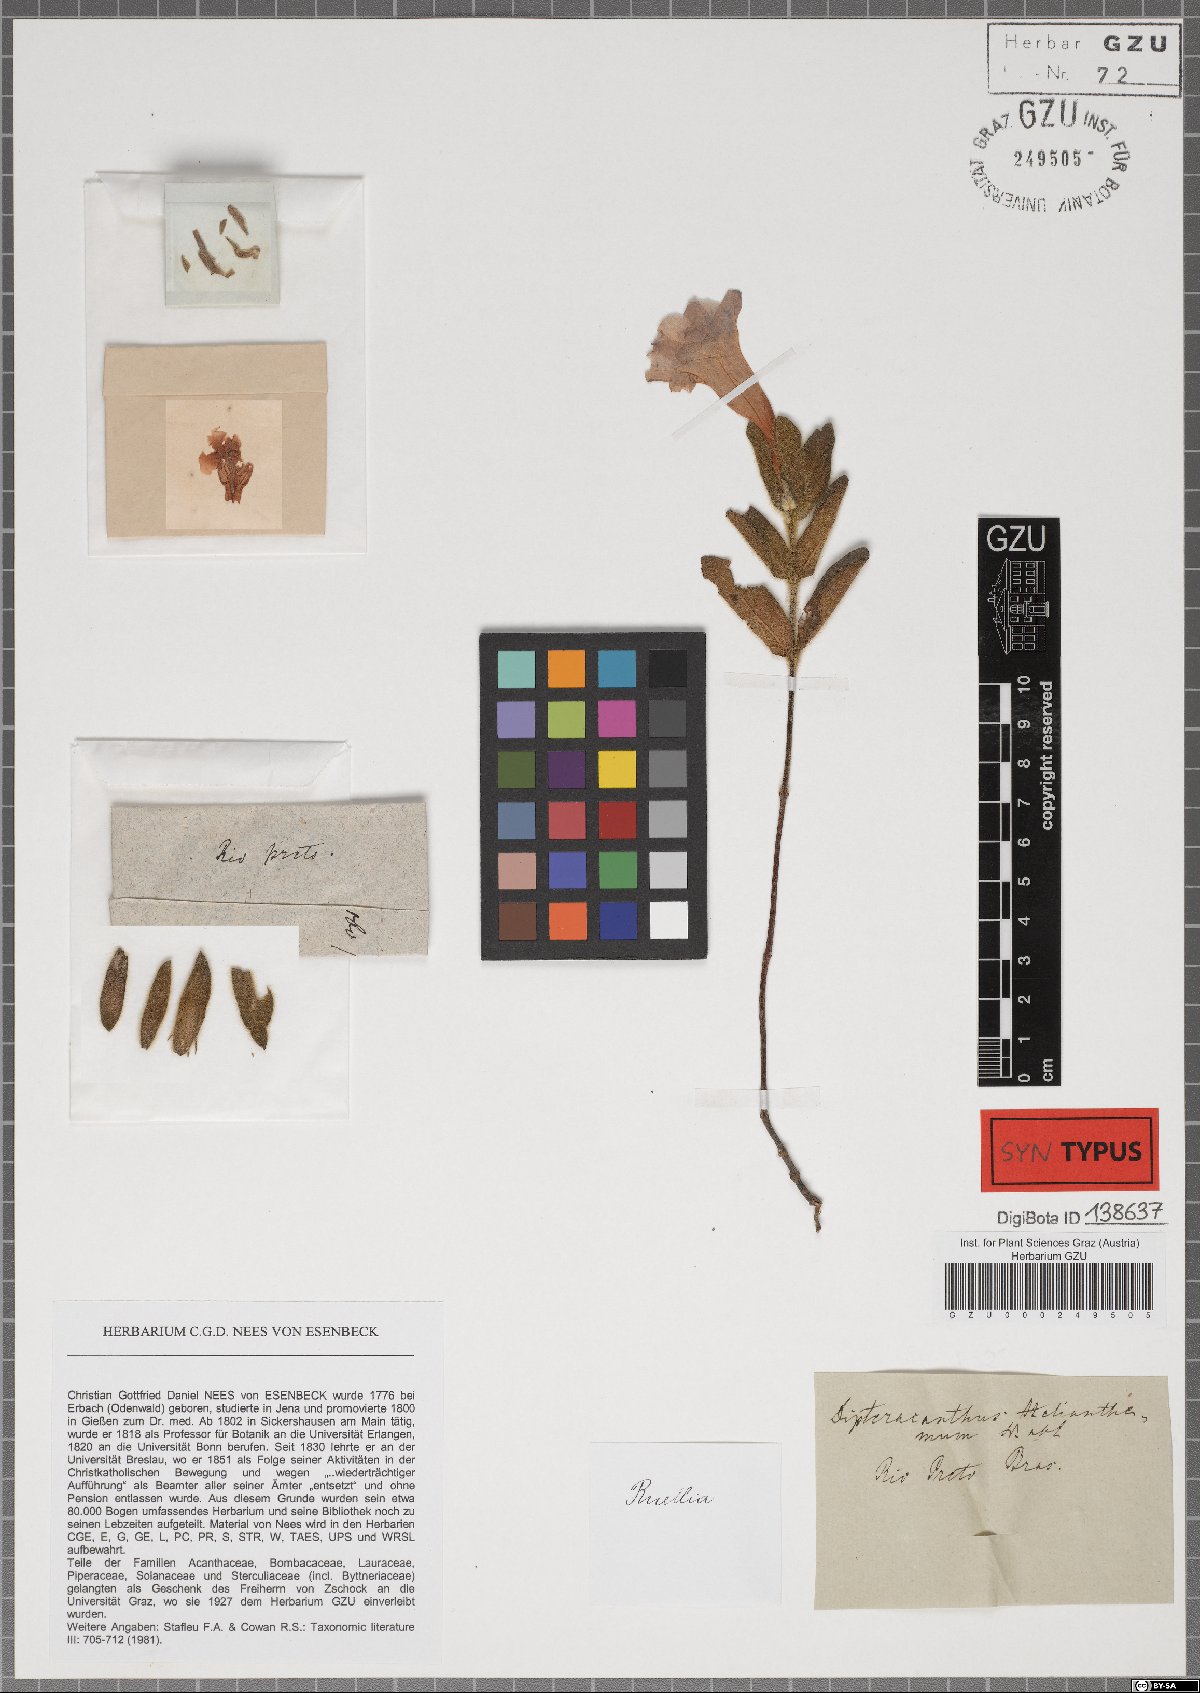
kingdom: Plantae
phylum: Tracheophyta
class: Magnoliopsida
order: Lamiales
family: Acanthaceae
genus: Ruellia
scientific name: Ruellia helianthema
